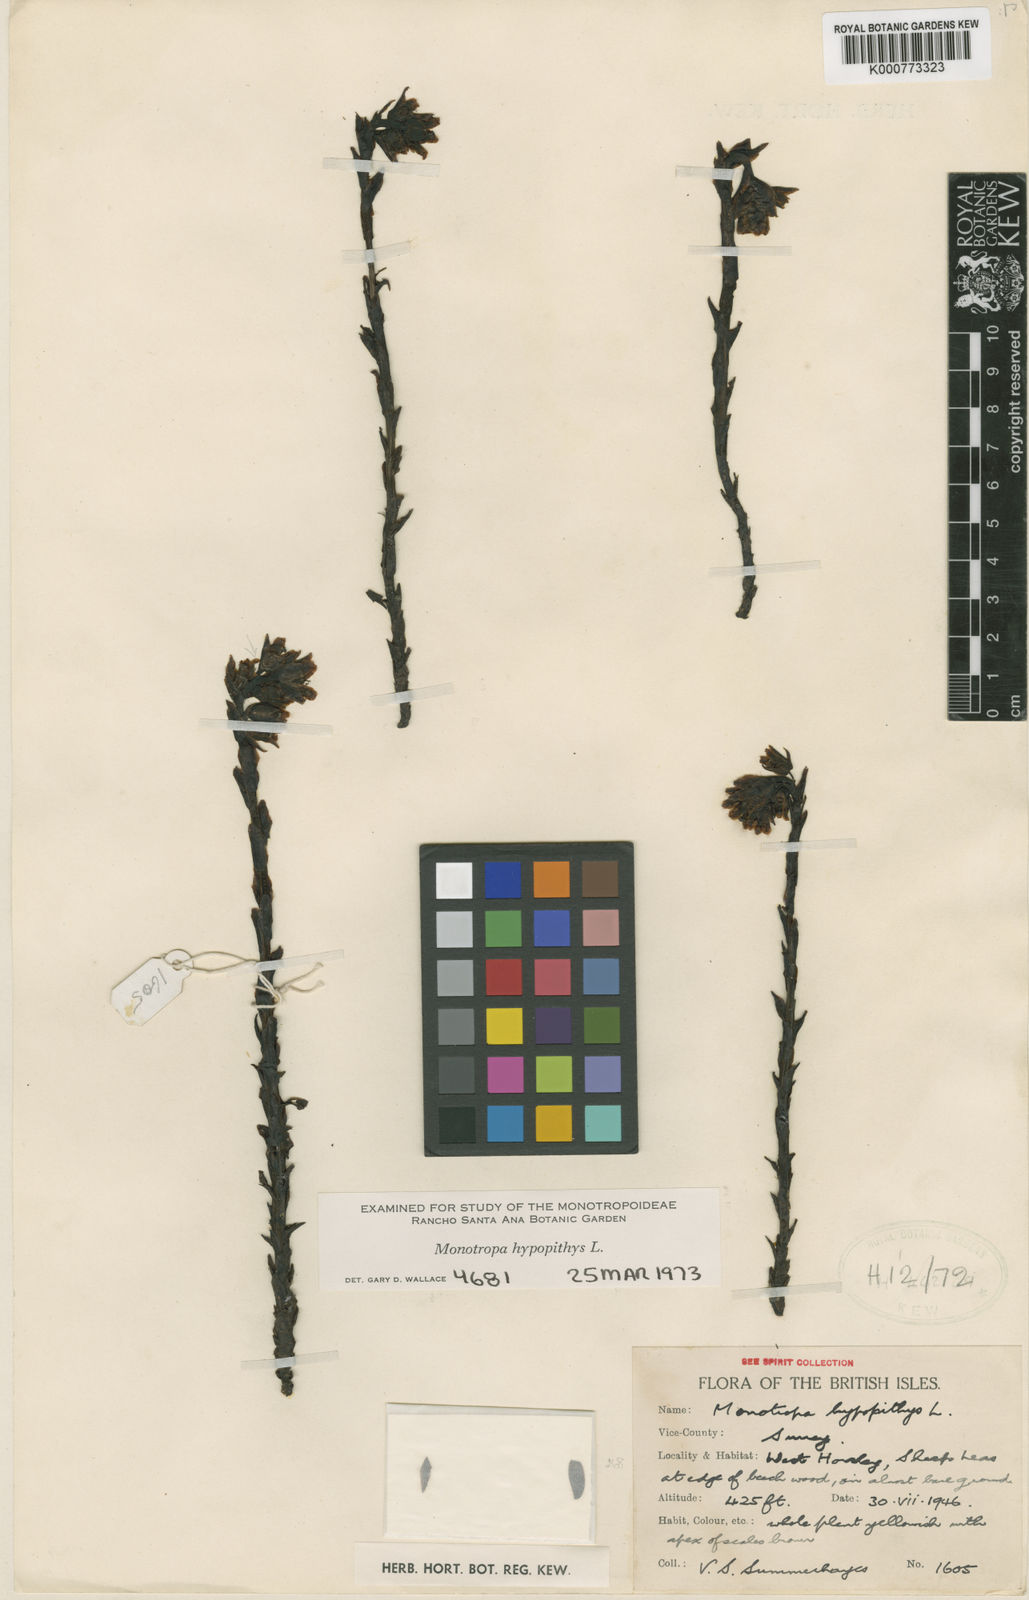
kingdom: Plantae
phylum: Tracheophyta
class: Magnoliopsida
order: Ericales
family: Ericaceae
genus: Monotropa
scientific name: Monotropa
